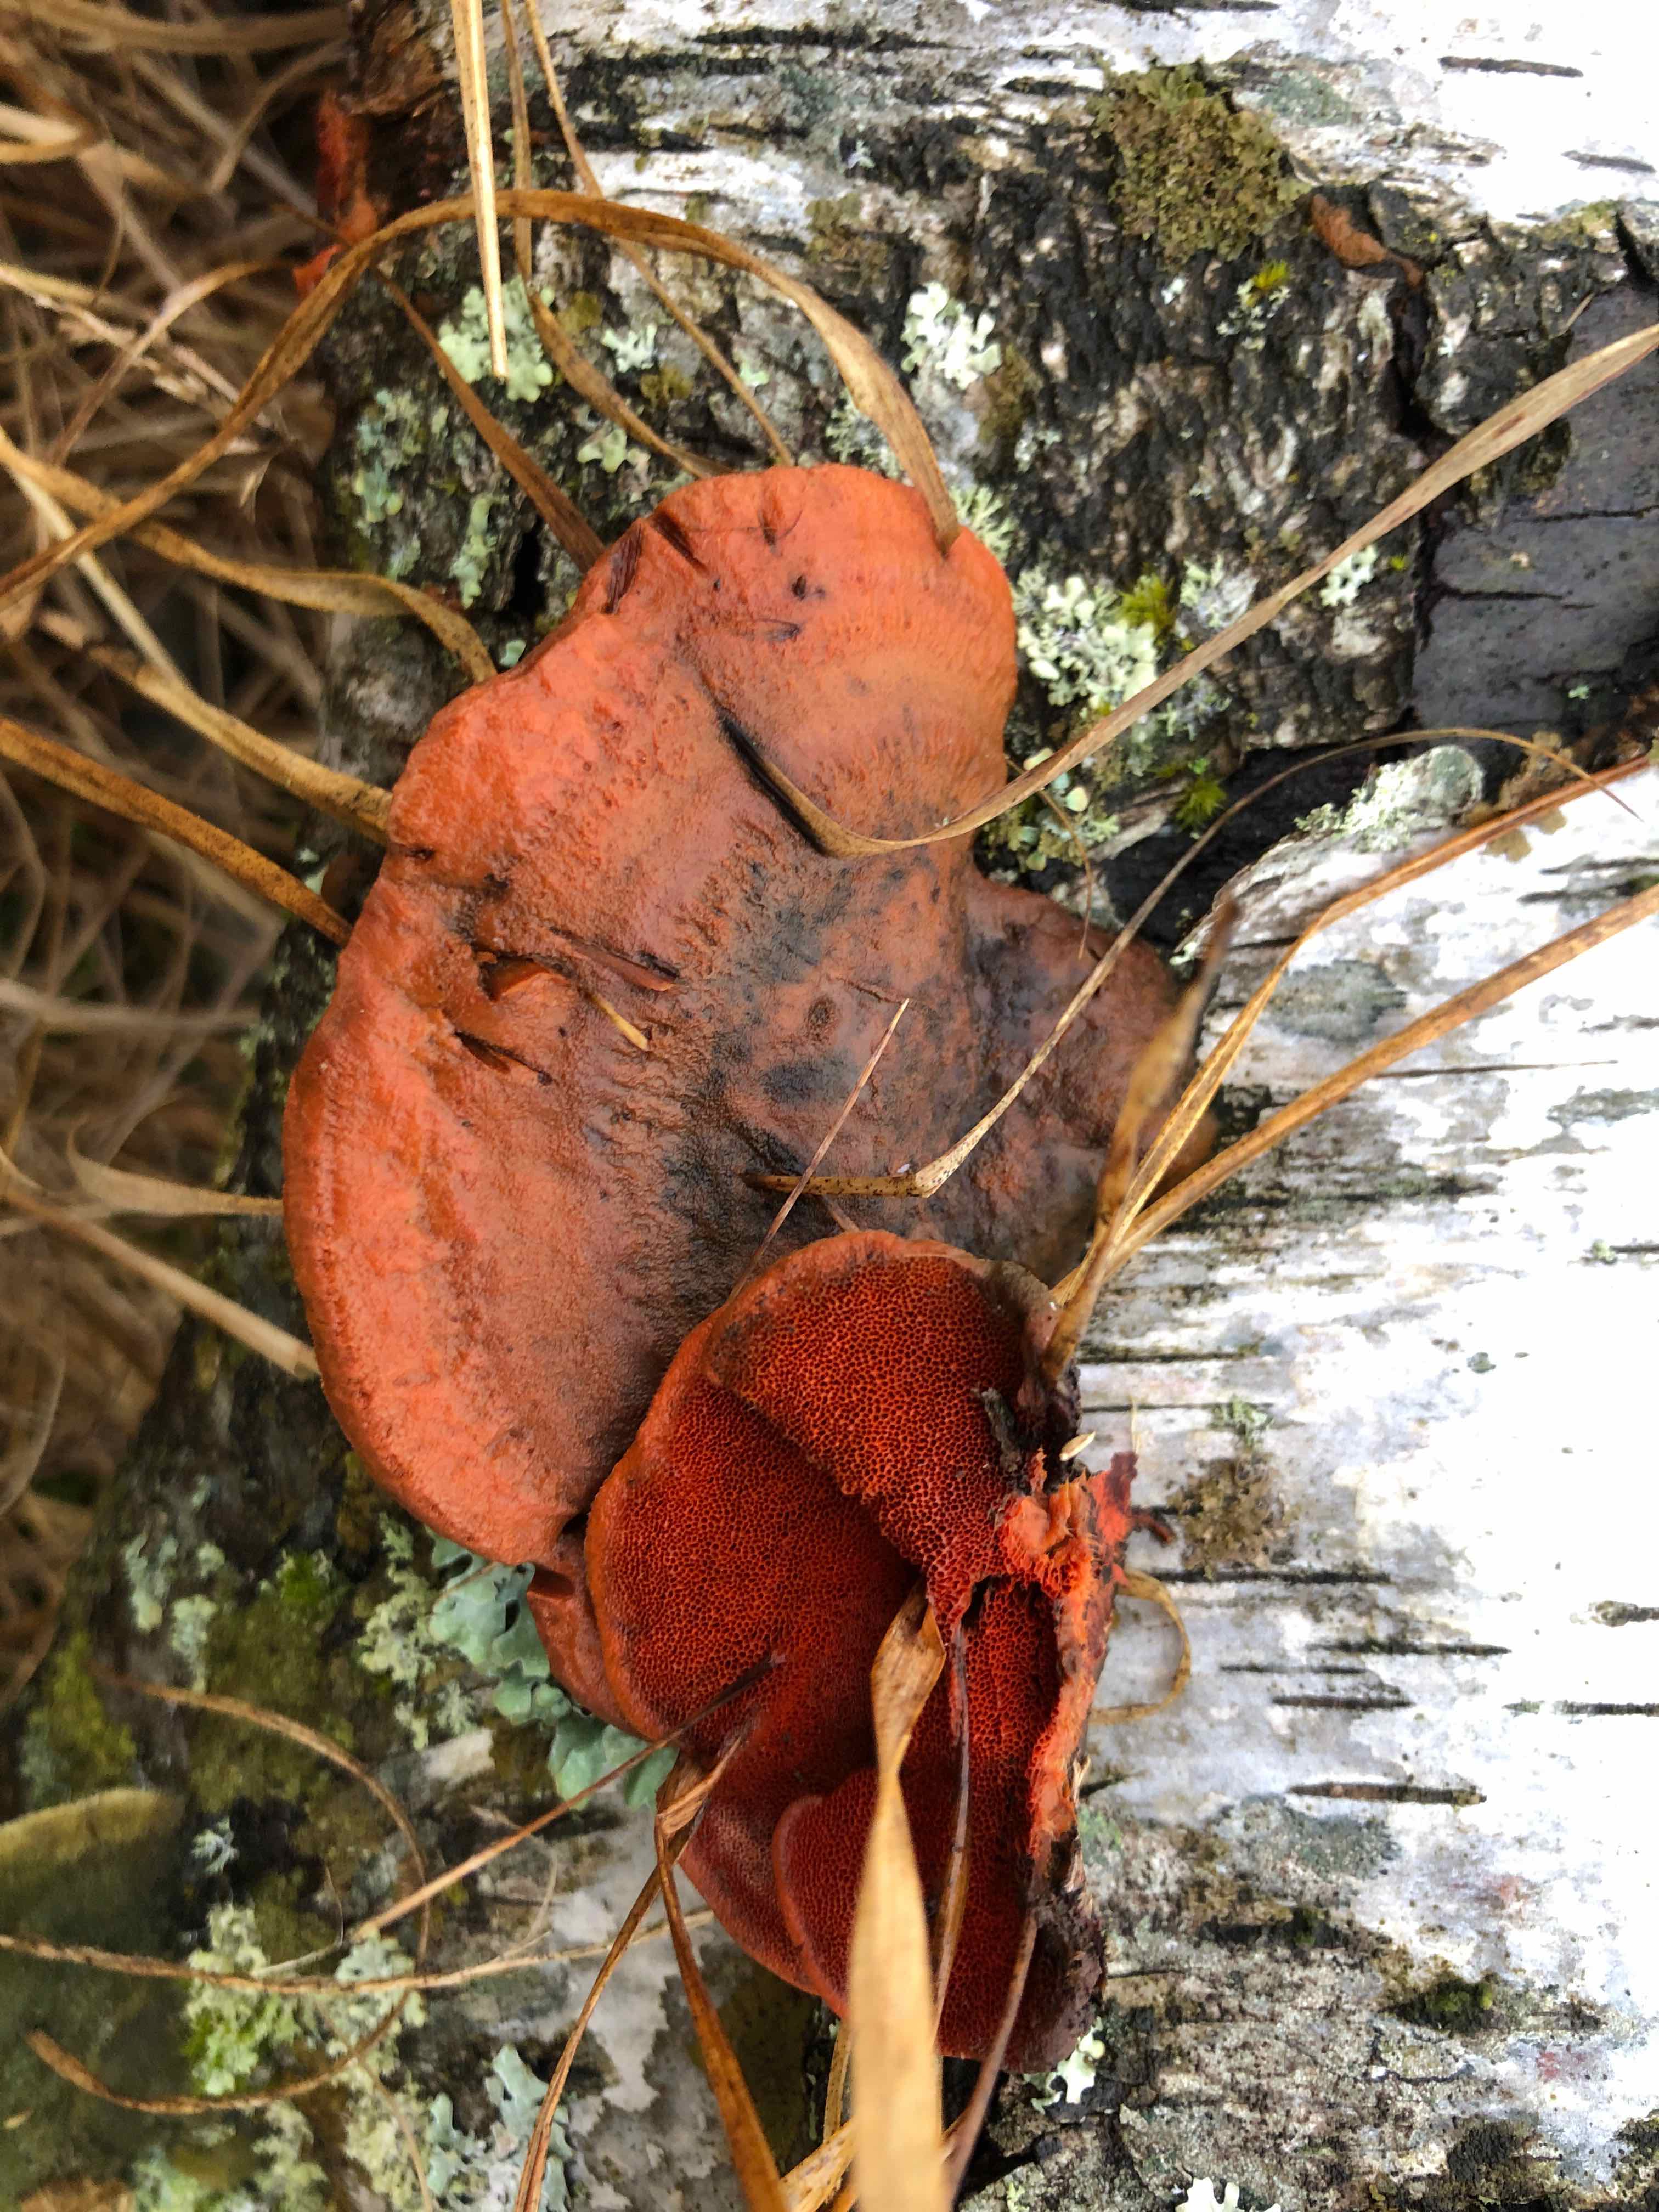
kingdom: Fungi
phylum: Basidiomycota
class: Agaricomycetes
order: Polyporales
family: Polyporaceae
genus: Trametes
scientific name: Trametes cinnabarina
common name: cinnoberporesvamp
